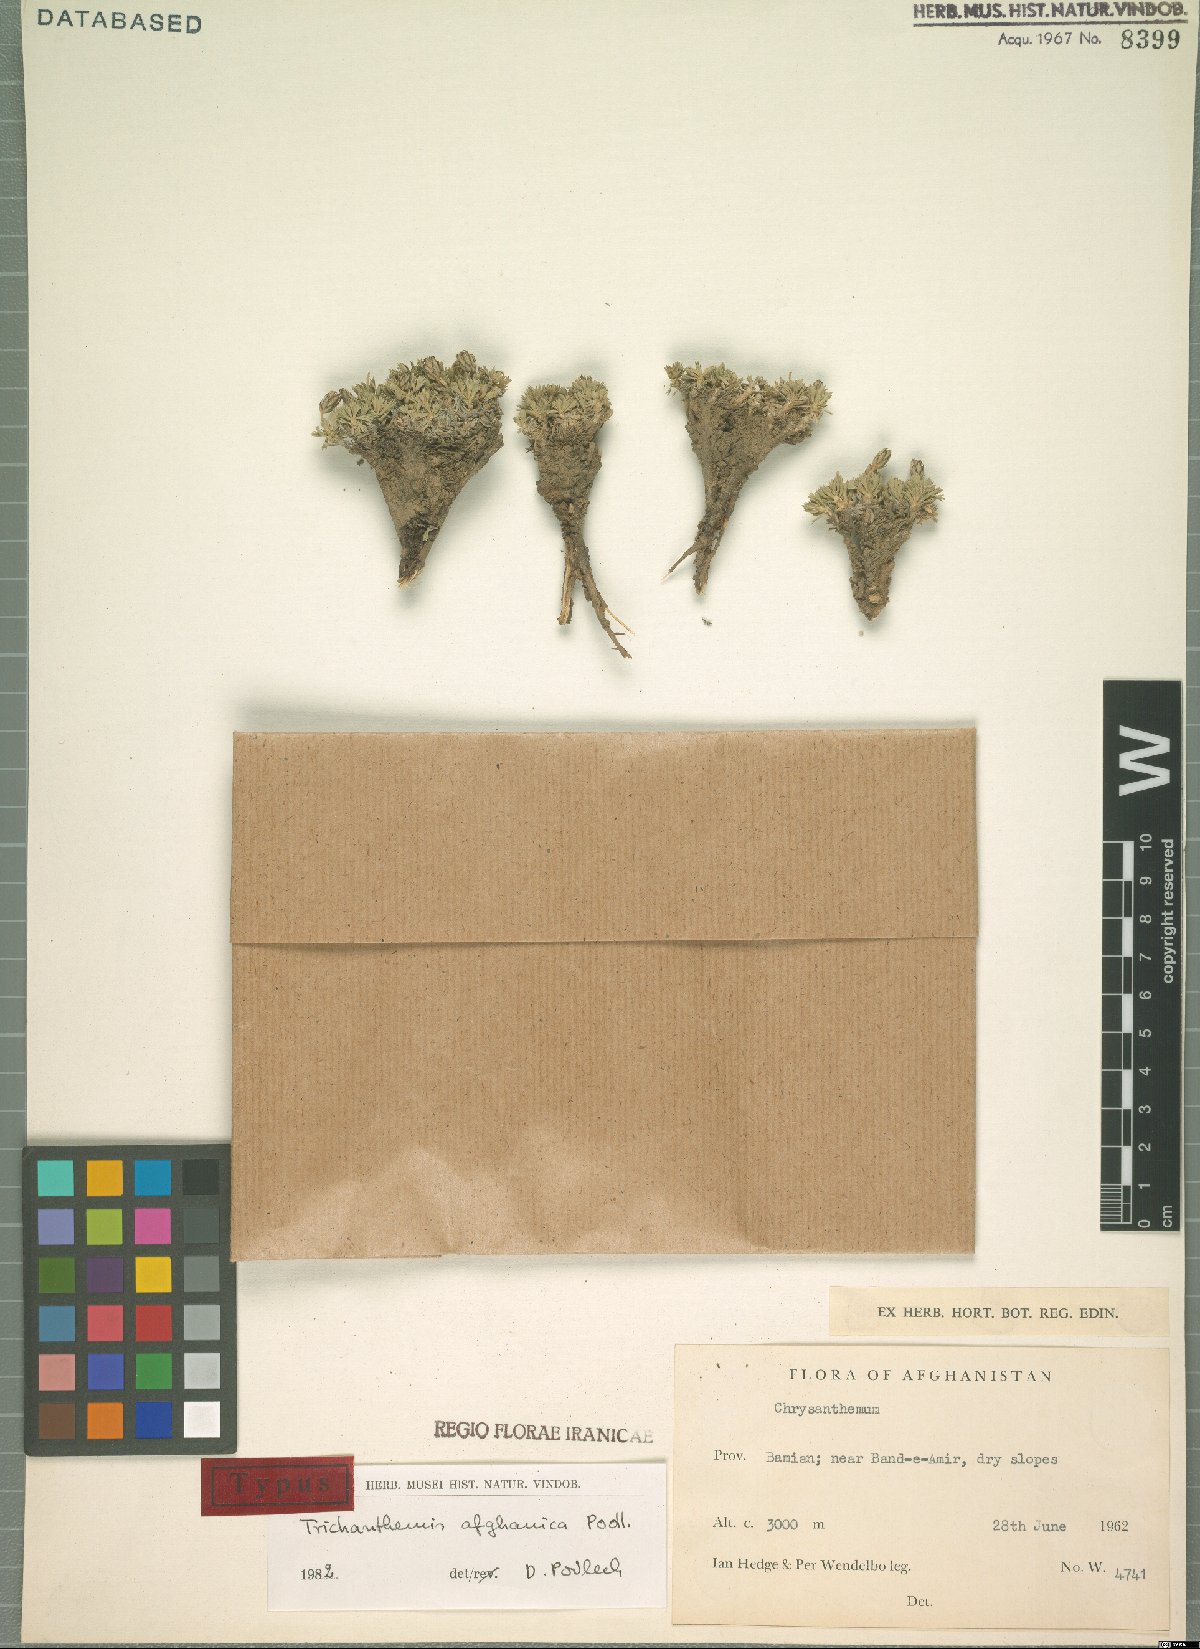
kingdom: Plantae
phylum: Tracheophyta
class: Magnoliopsida
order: Asterales
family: Asteraceae
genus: Trichanthemis
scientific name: Trichanthemis afghanica
